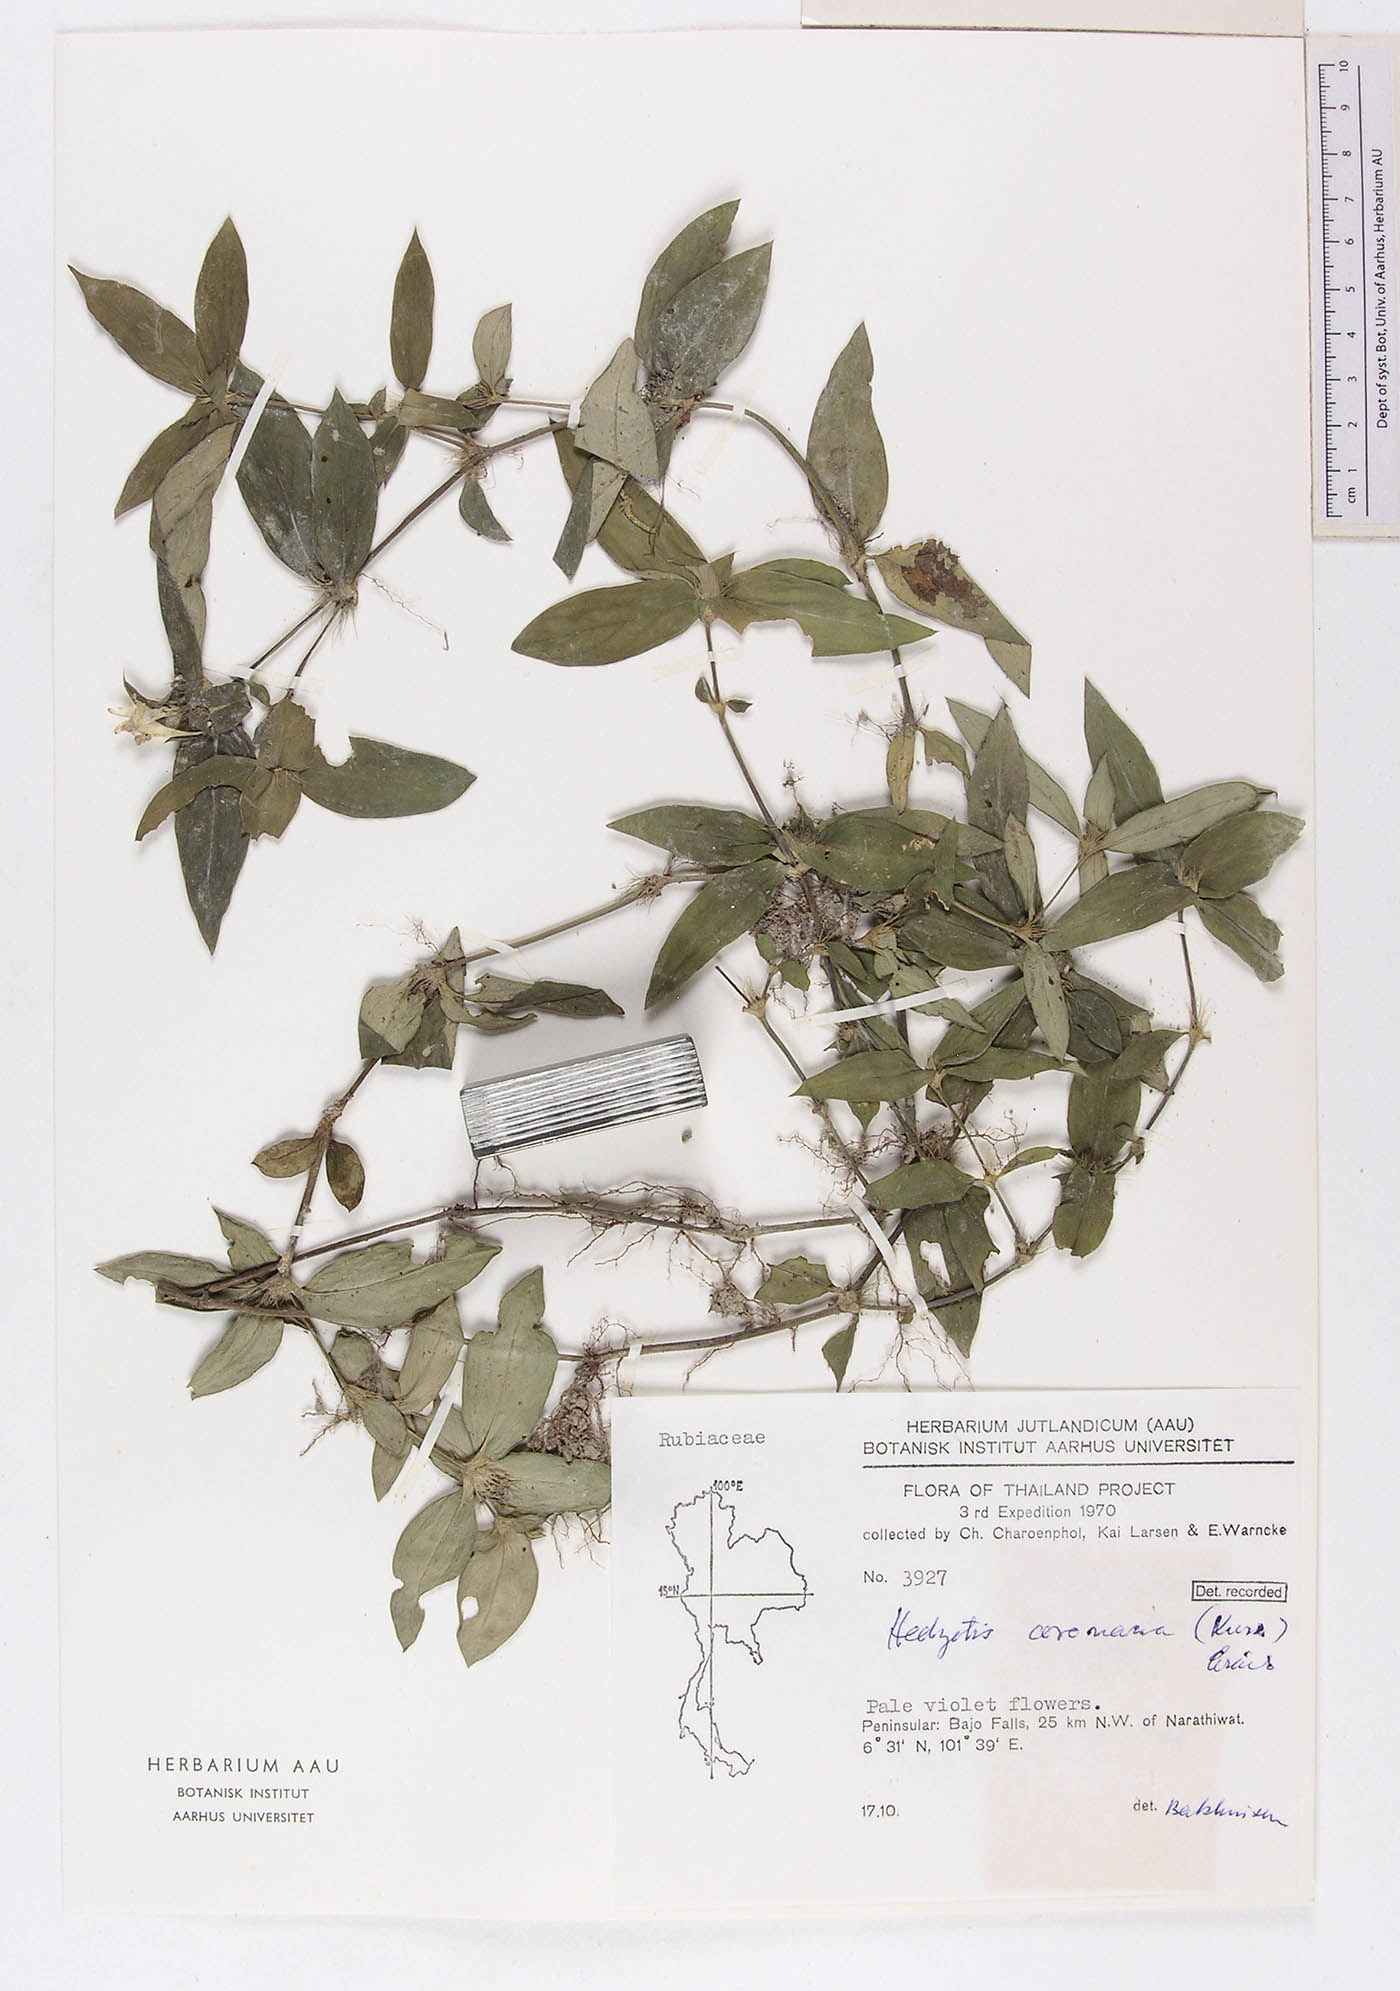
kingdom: Plantae
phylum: Tracheophyta
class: Magnoliopsida
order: Gentianales
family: Rubiaceae
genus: Involucrella
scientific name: Involucrella coronaria
